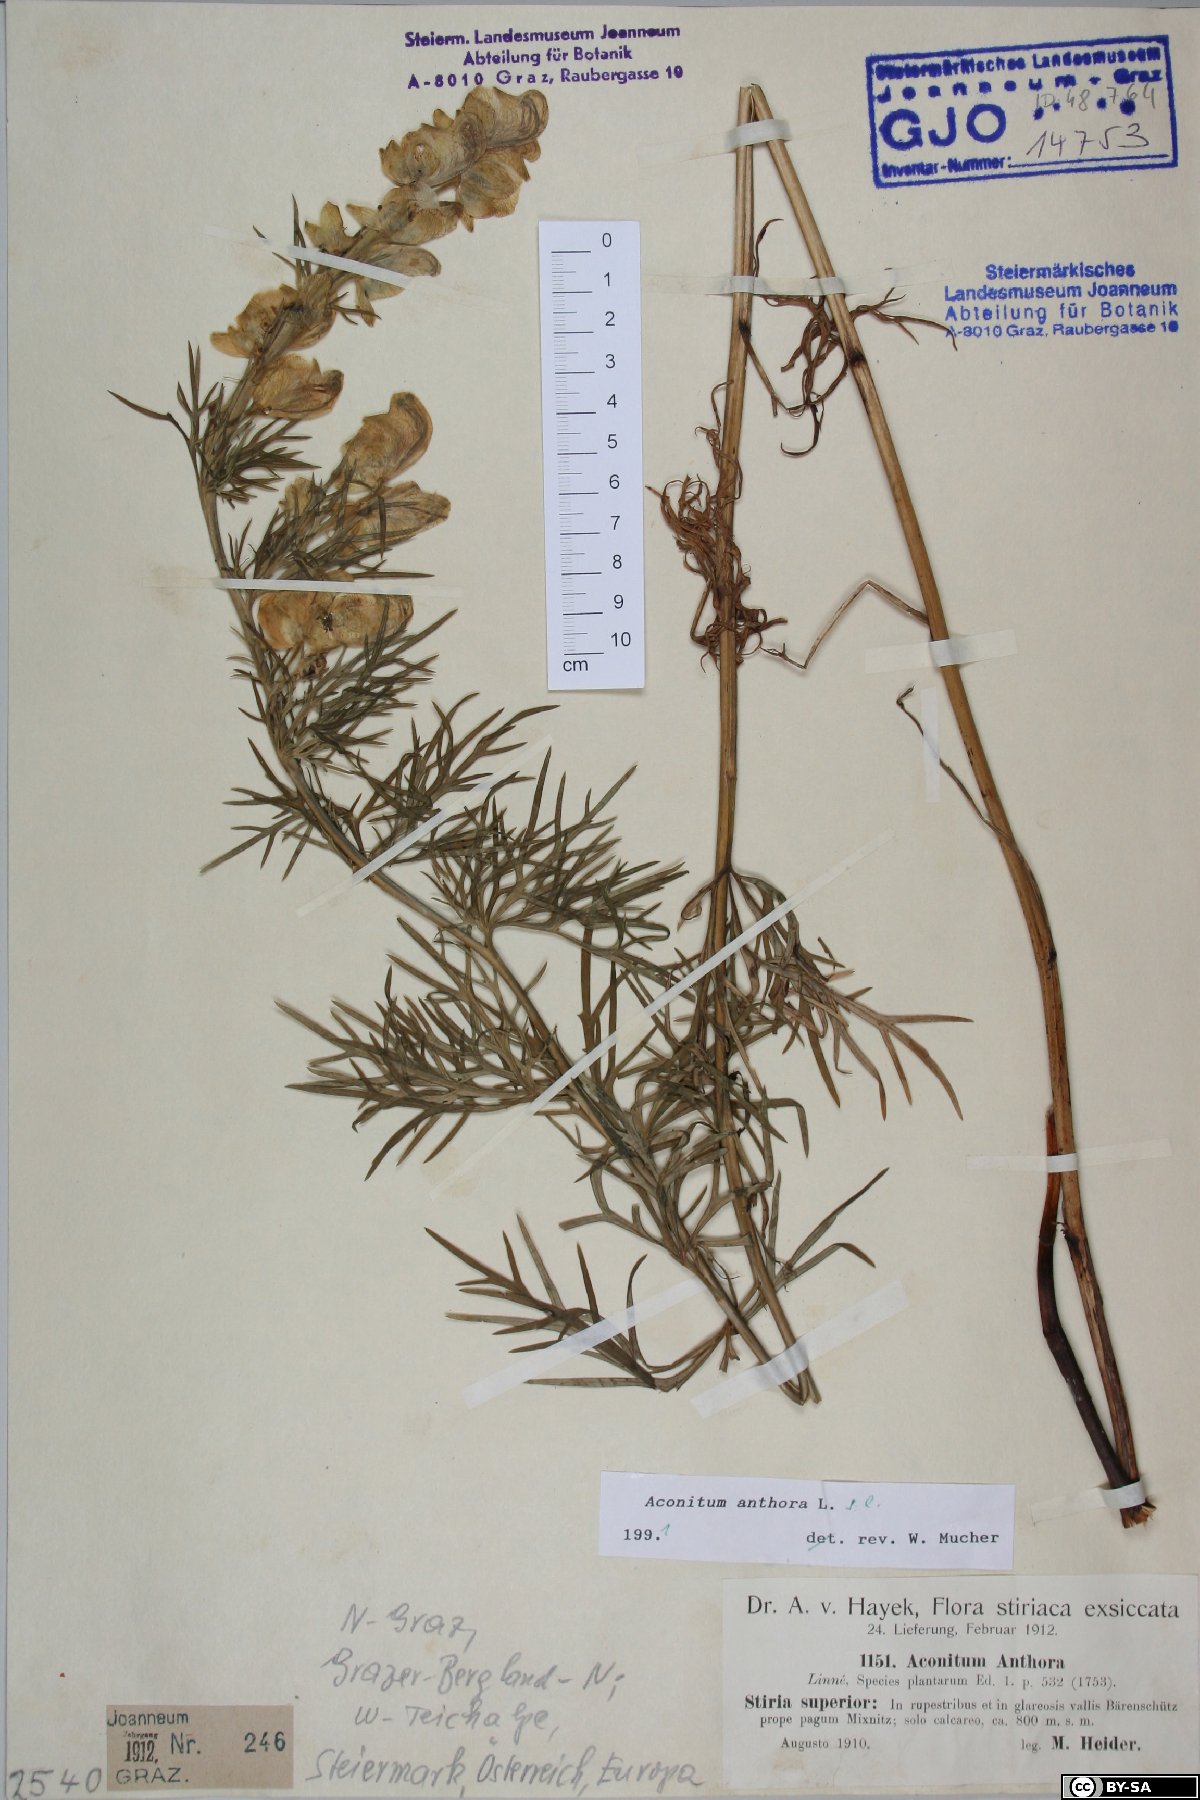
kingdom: Plantae
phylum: Tracheophyta
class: Magnoliopsida
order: Ranunculales
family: Ranunculaceae
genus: Aconitum
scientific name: Aconitum anthora
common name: Yellow monkshood
